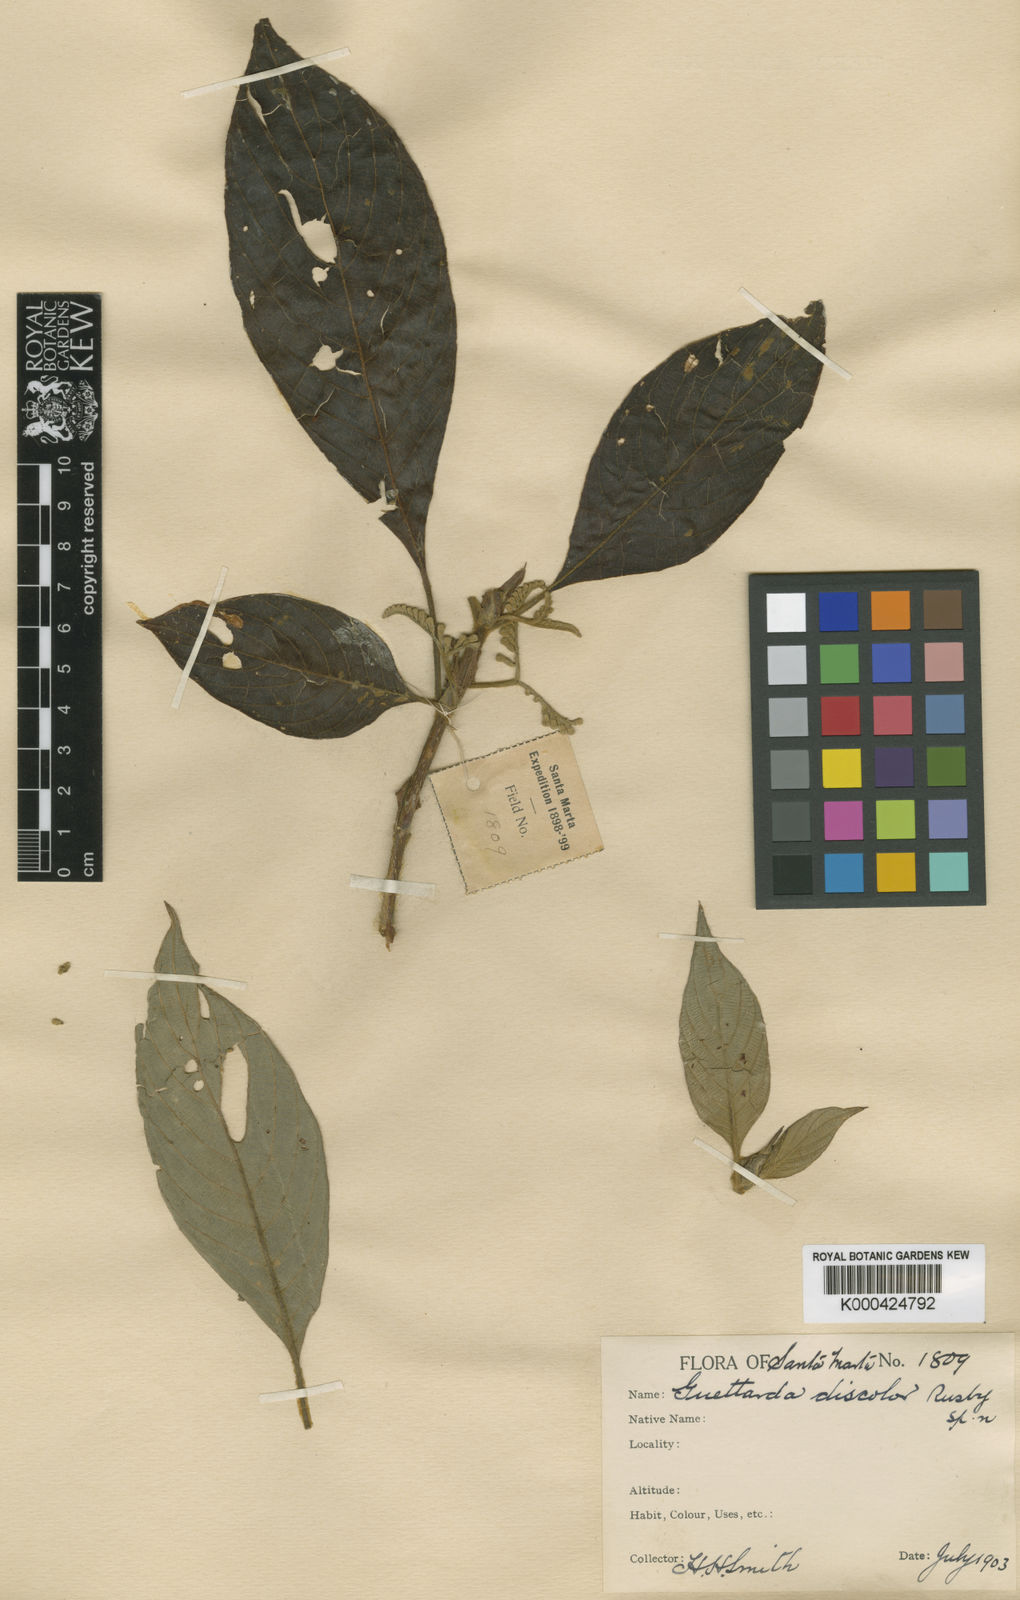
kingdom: Plantae
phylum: Tracheophyta
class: Magnoliopsida
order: Gentianales
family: Rubiaceae
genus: Tournefortiopsis
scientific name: Tournefortiopsis crispiflora
